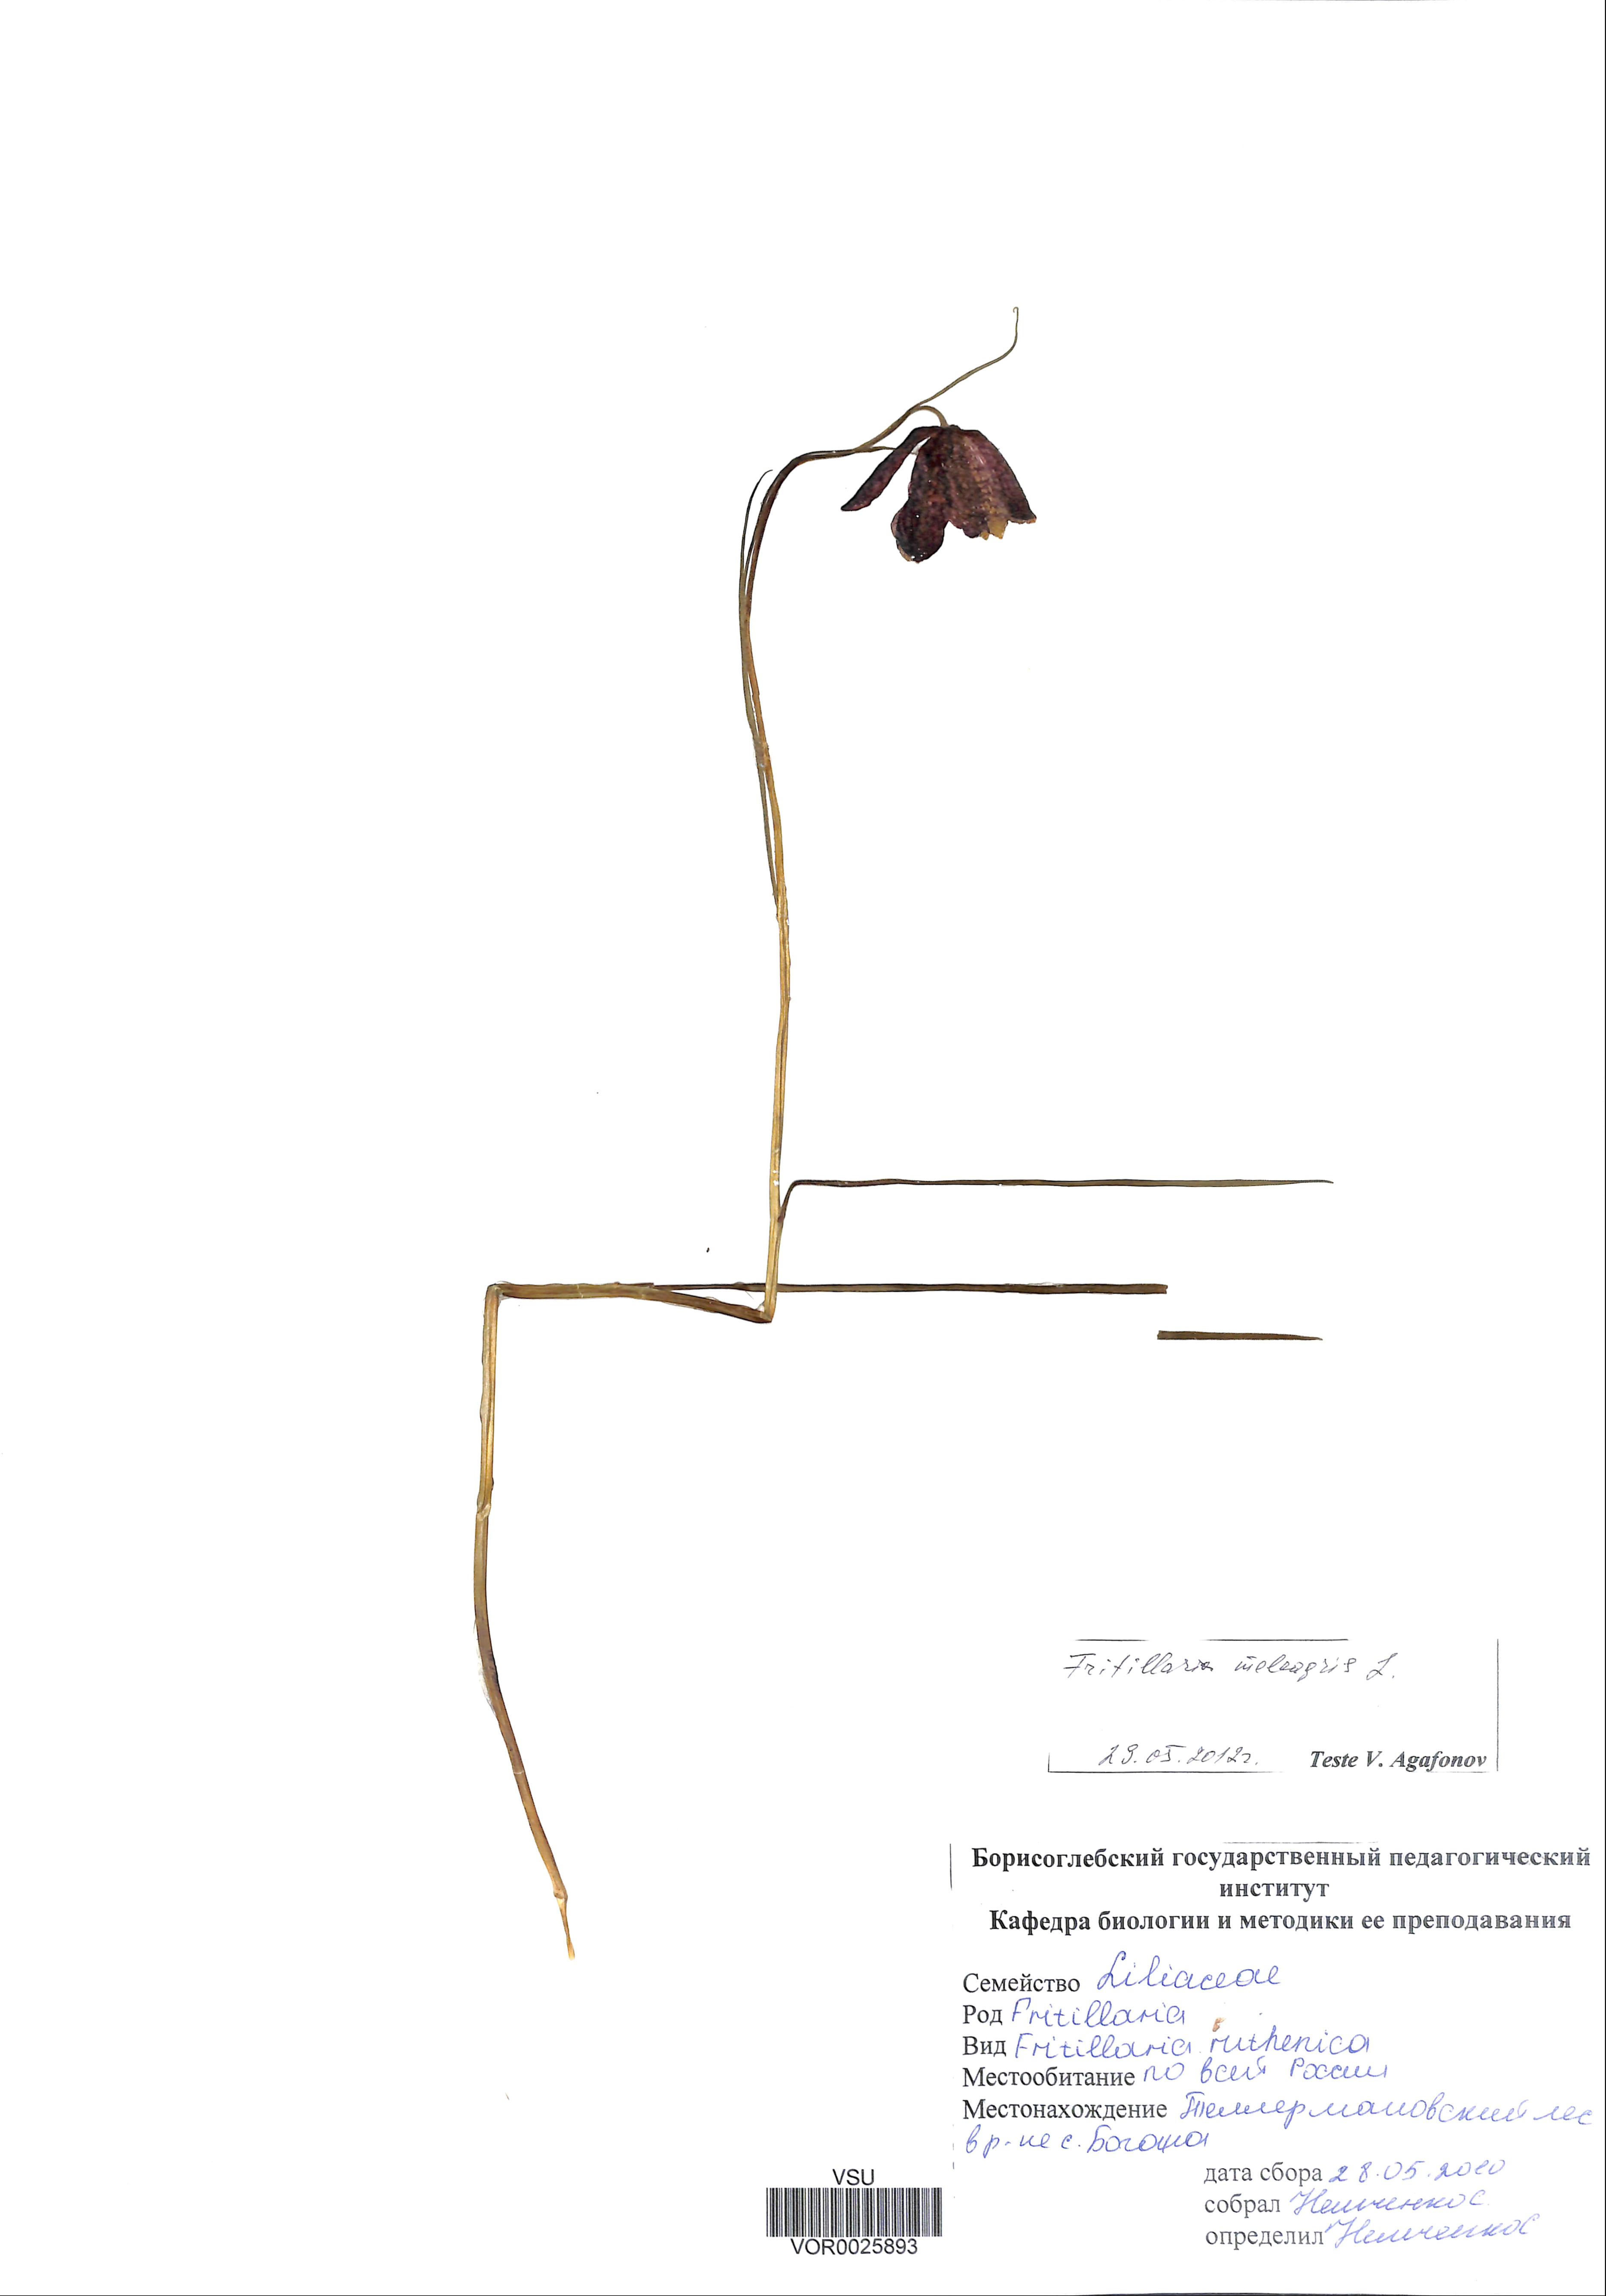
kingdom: Plantae
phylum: Tracheophyta
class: Liliopsida
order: Liliales
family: Liliaceae
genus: Fritillaria
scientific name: Fritillaria meleagris
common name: Fritillary
